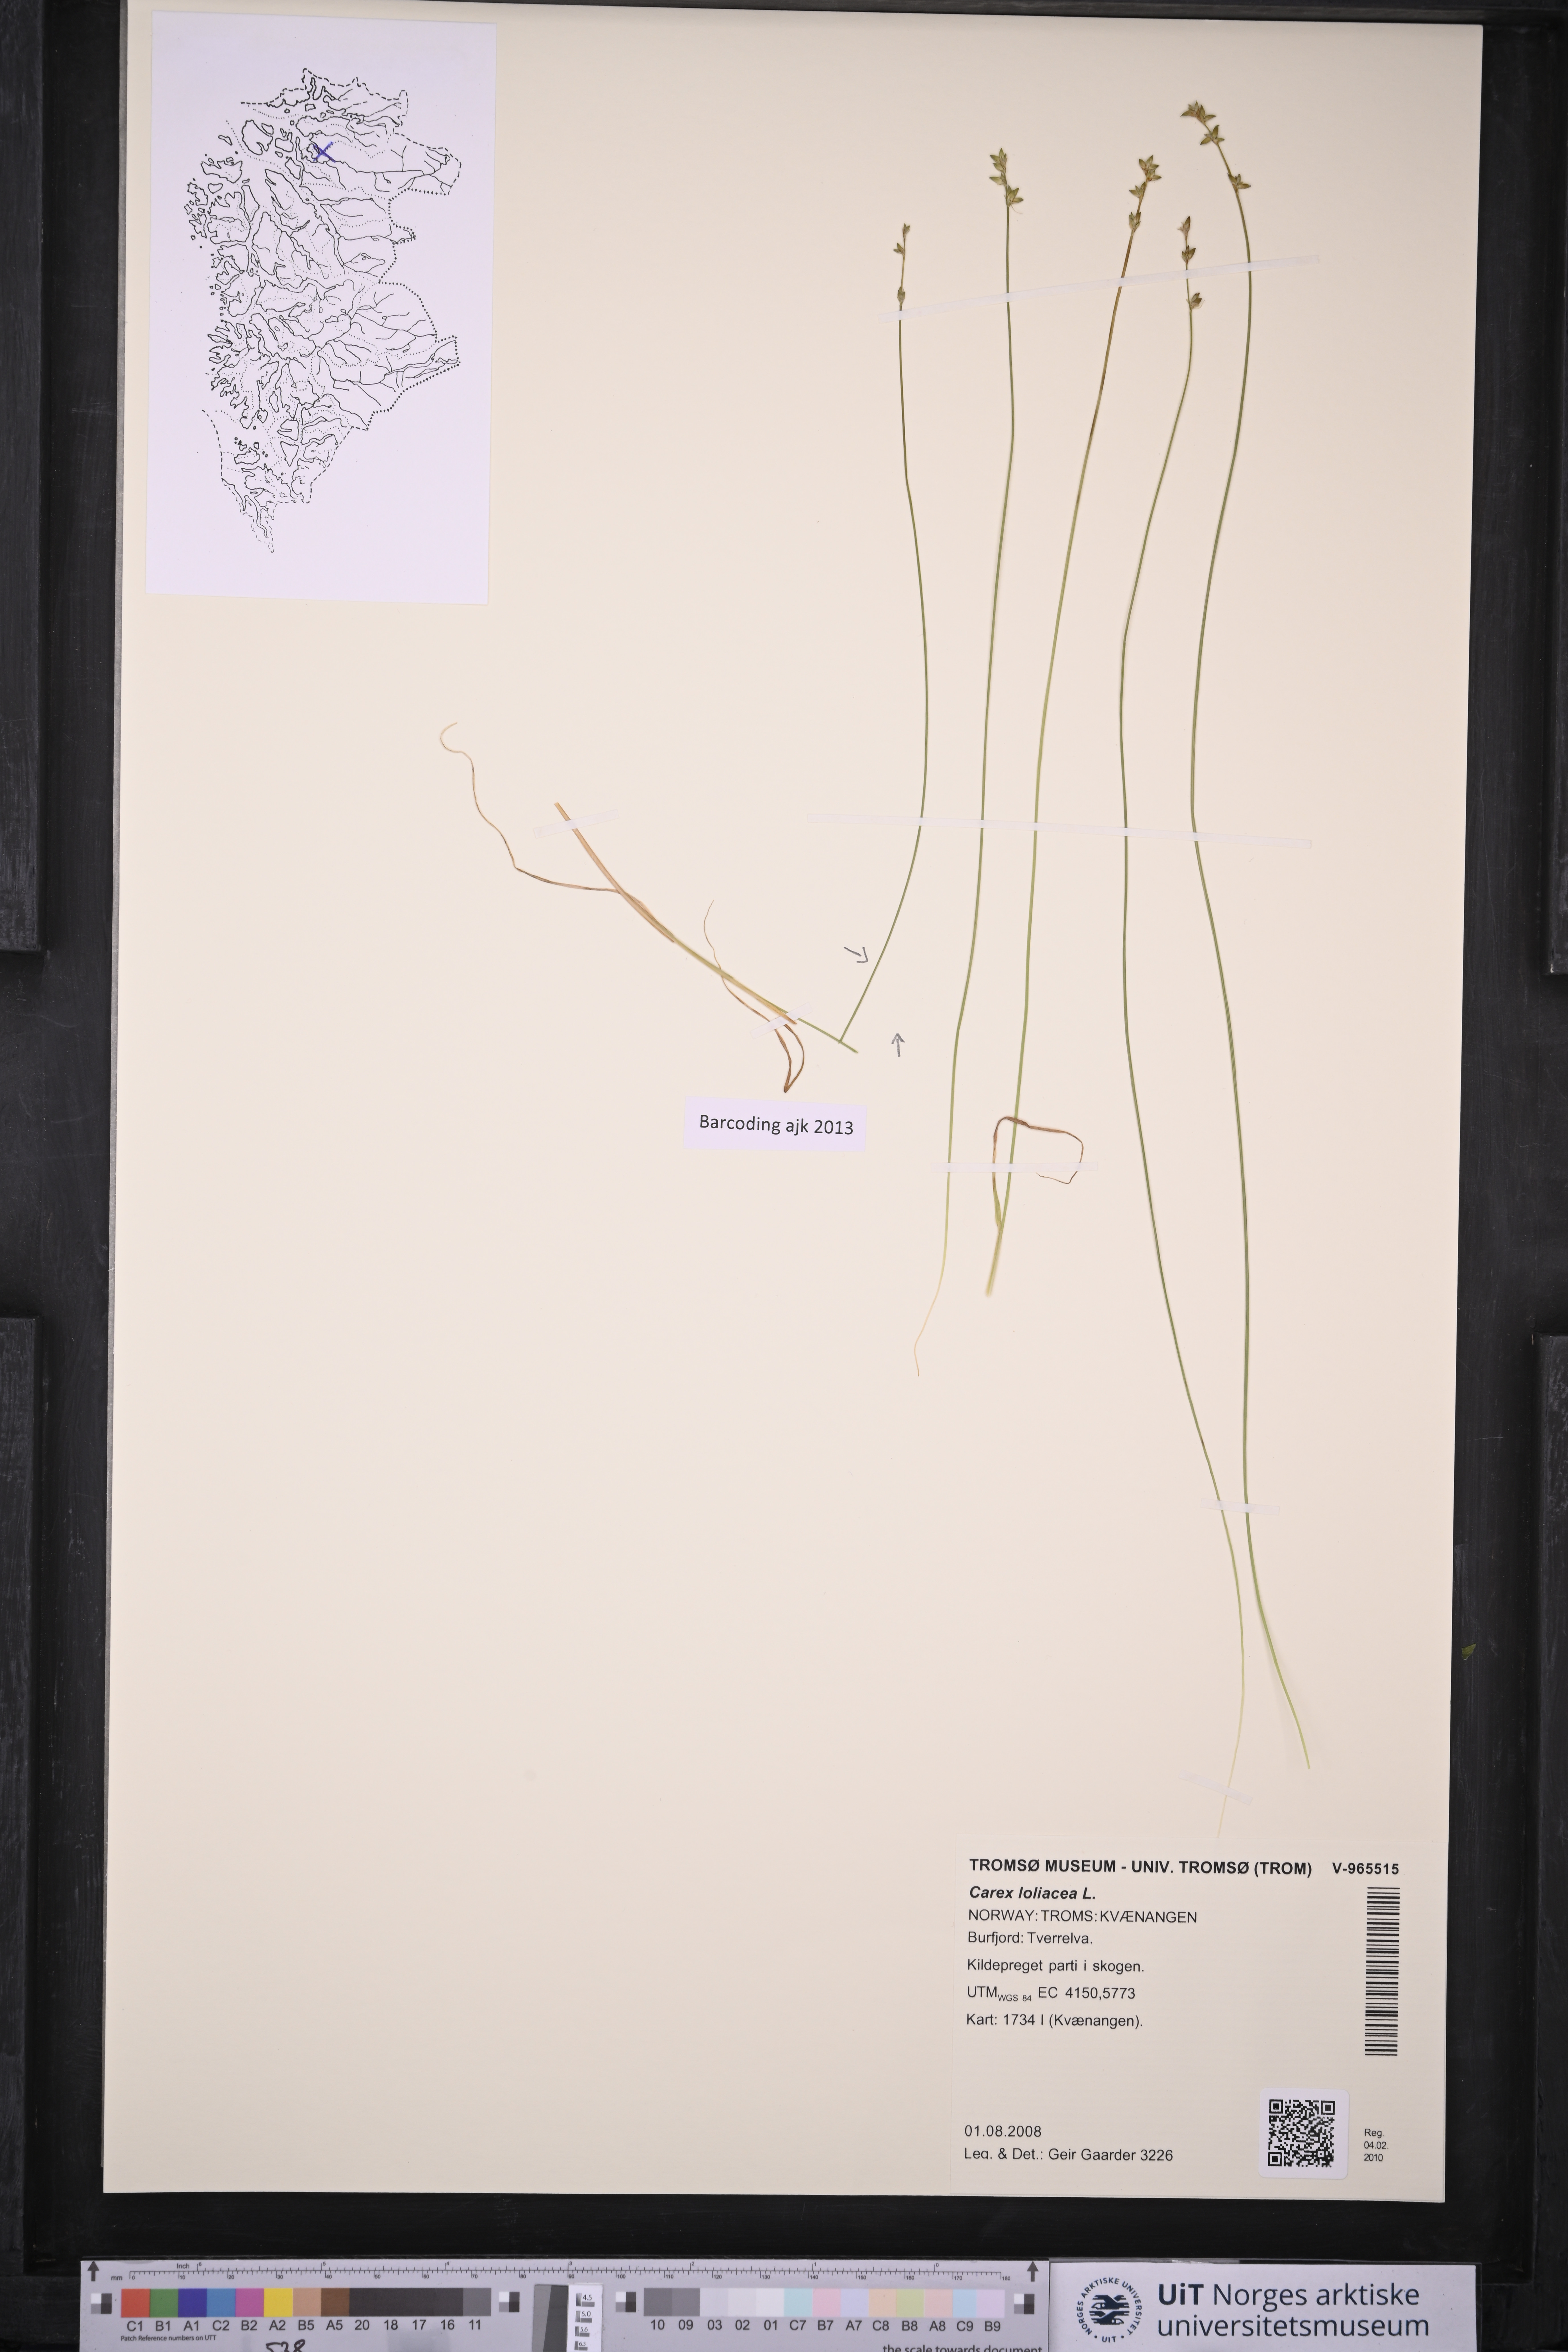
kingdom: Plantae
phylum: Tracheophyta
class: Liliopsida
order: Poales
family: Cyperaceae
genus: Carex
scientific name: Carex loliacea
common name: Ryegrass sedge
